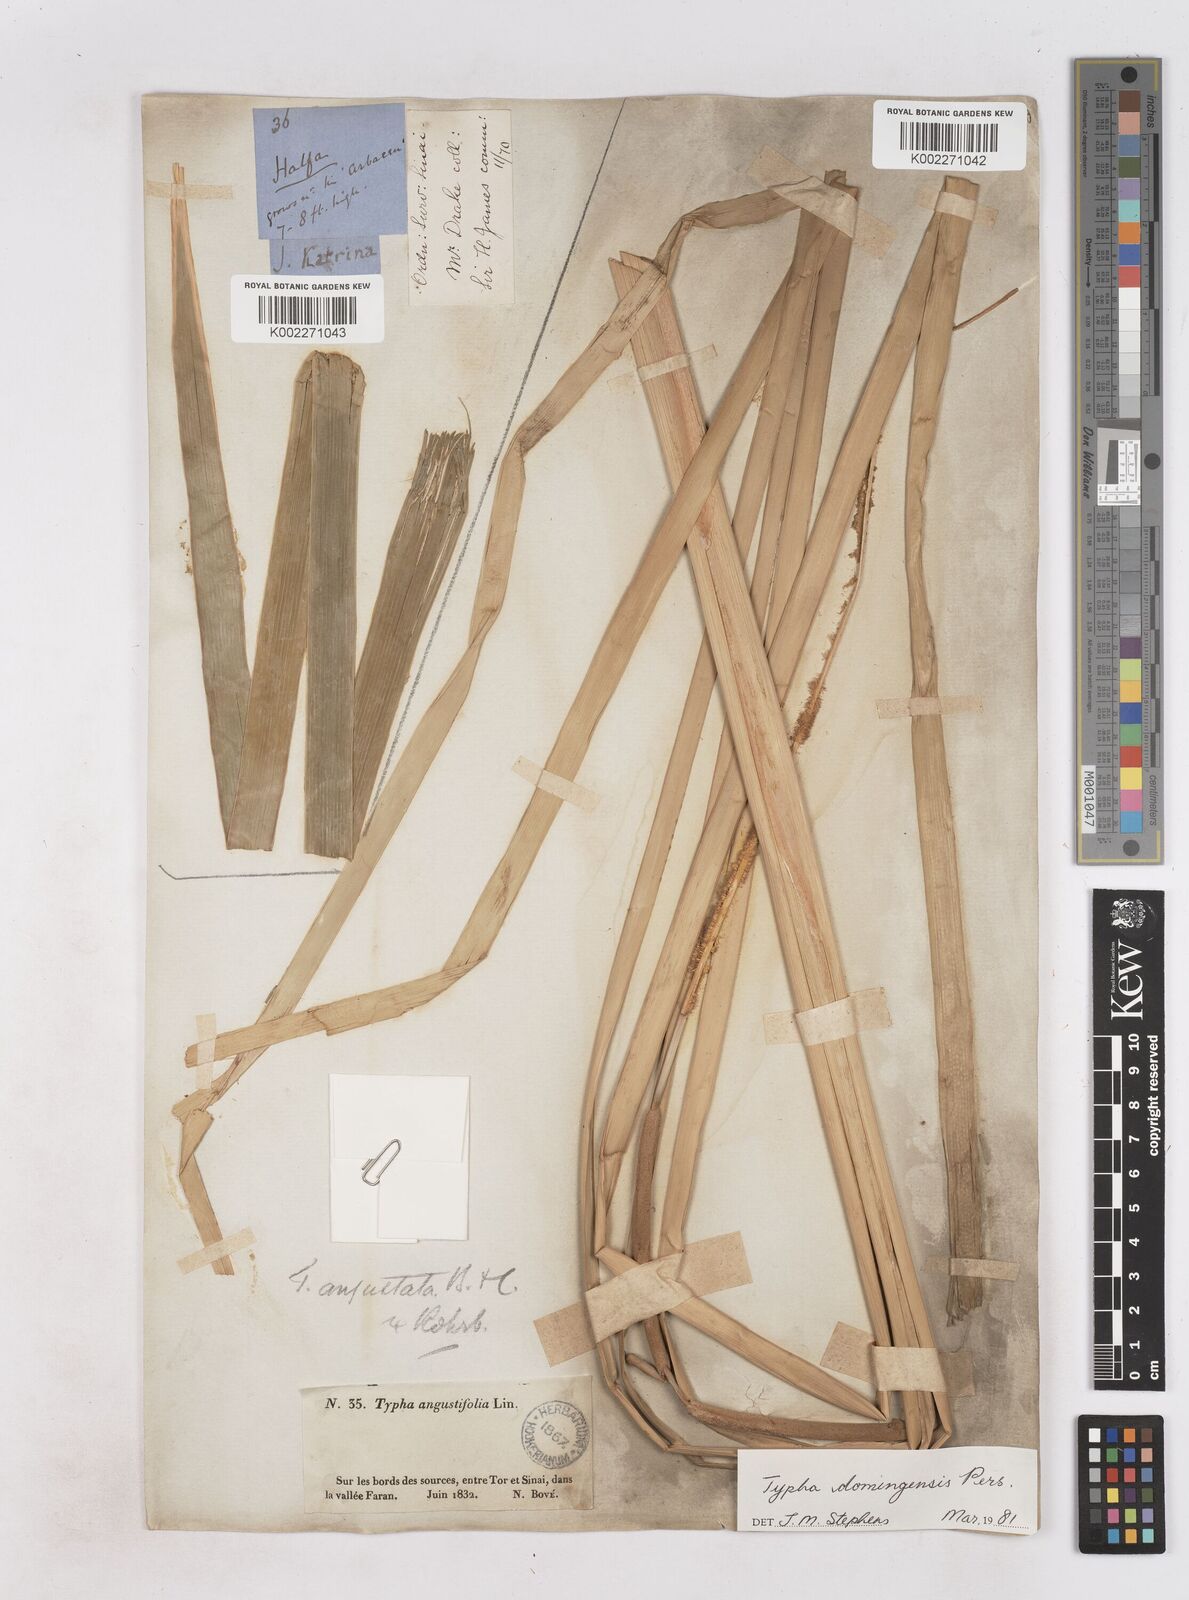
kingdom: Plantae
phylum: Tracheophyta
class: Liliopsida
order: Poales
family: Typhaceae
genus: Typha
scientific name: Typha domingensis
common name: Southern cattail
